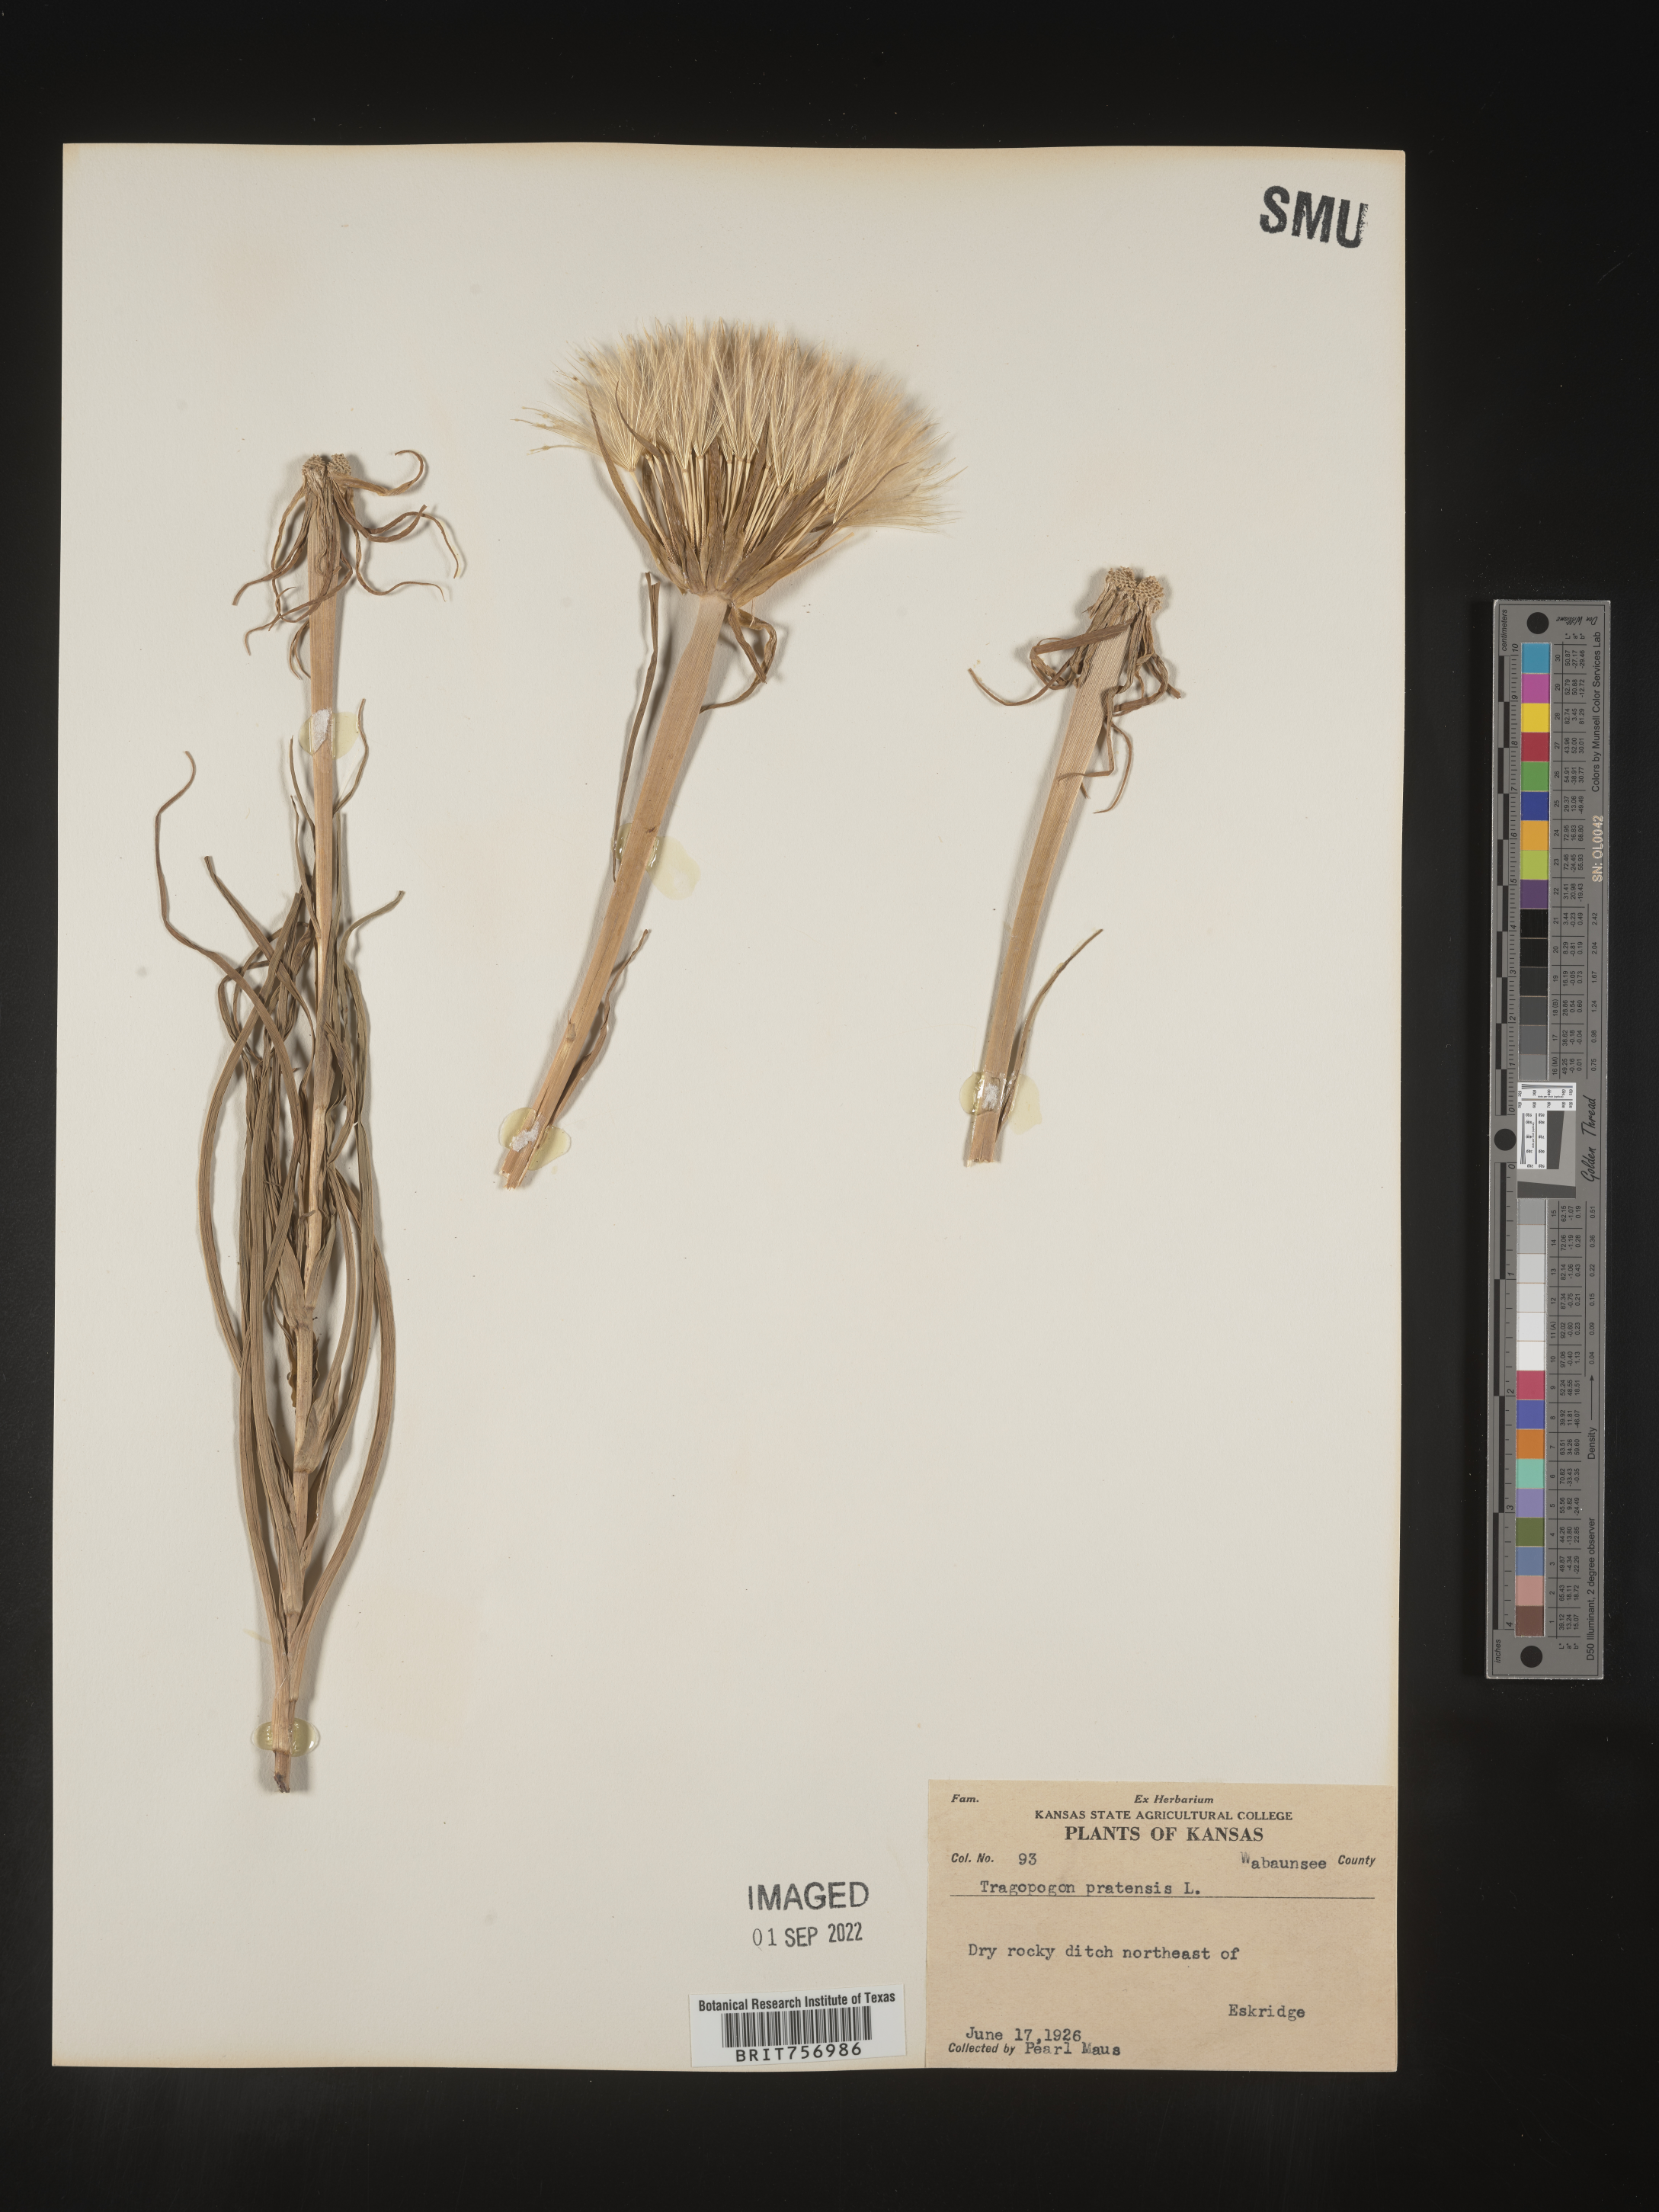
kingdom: Plantae
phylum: Tracheophyta
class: Magnoliopsida
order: Asterales
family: Asteraceae
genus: Tragopogon
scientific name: Tragopogon pratensis
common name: Goat's-beard
